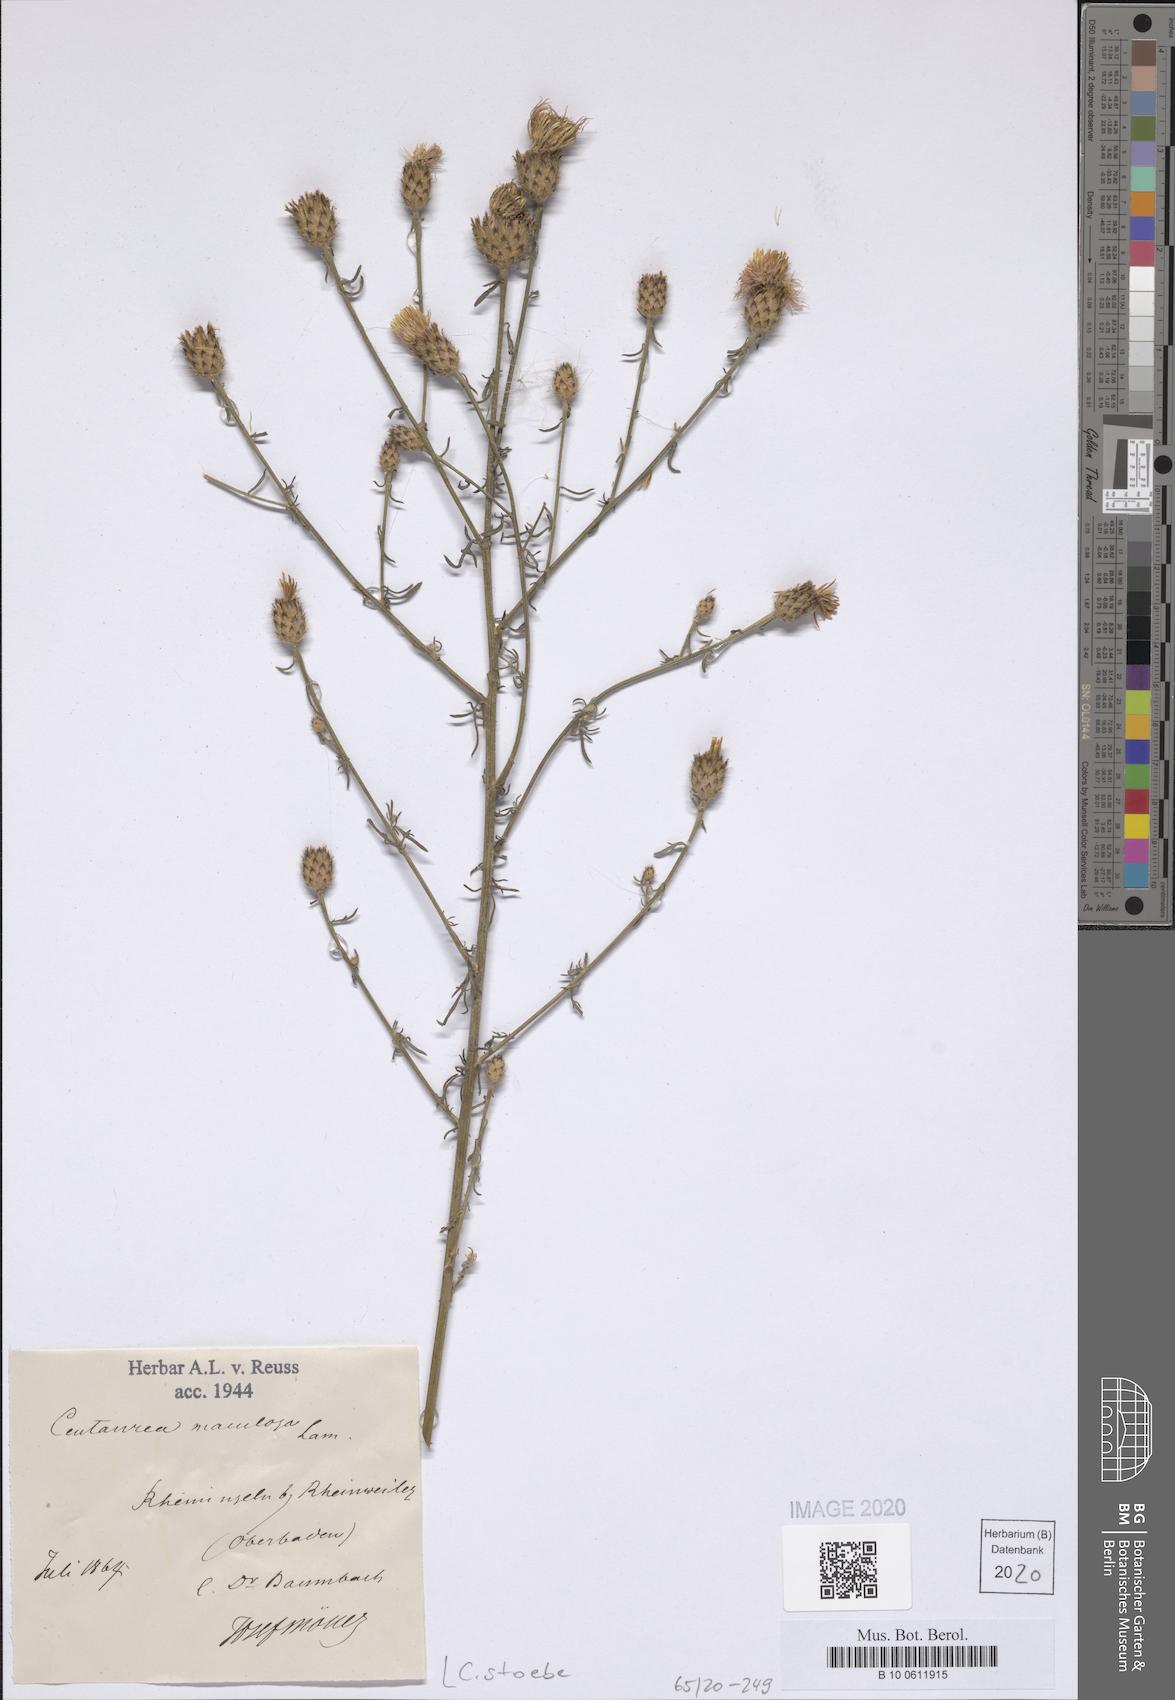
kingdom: Plantae
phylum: Tracheophyta
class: Magnoliopsida
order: Asterales
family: Asteraceae
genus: Centaurea
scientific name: Centaurea stoebe
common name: Spotted knapweed
